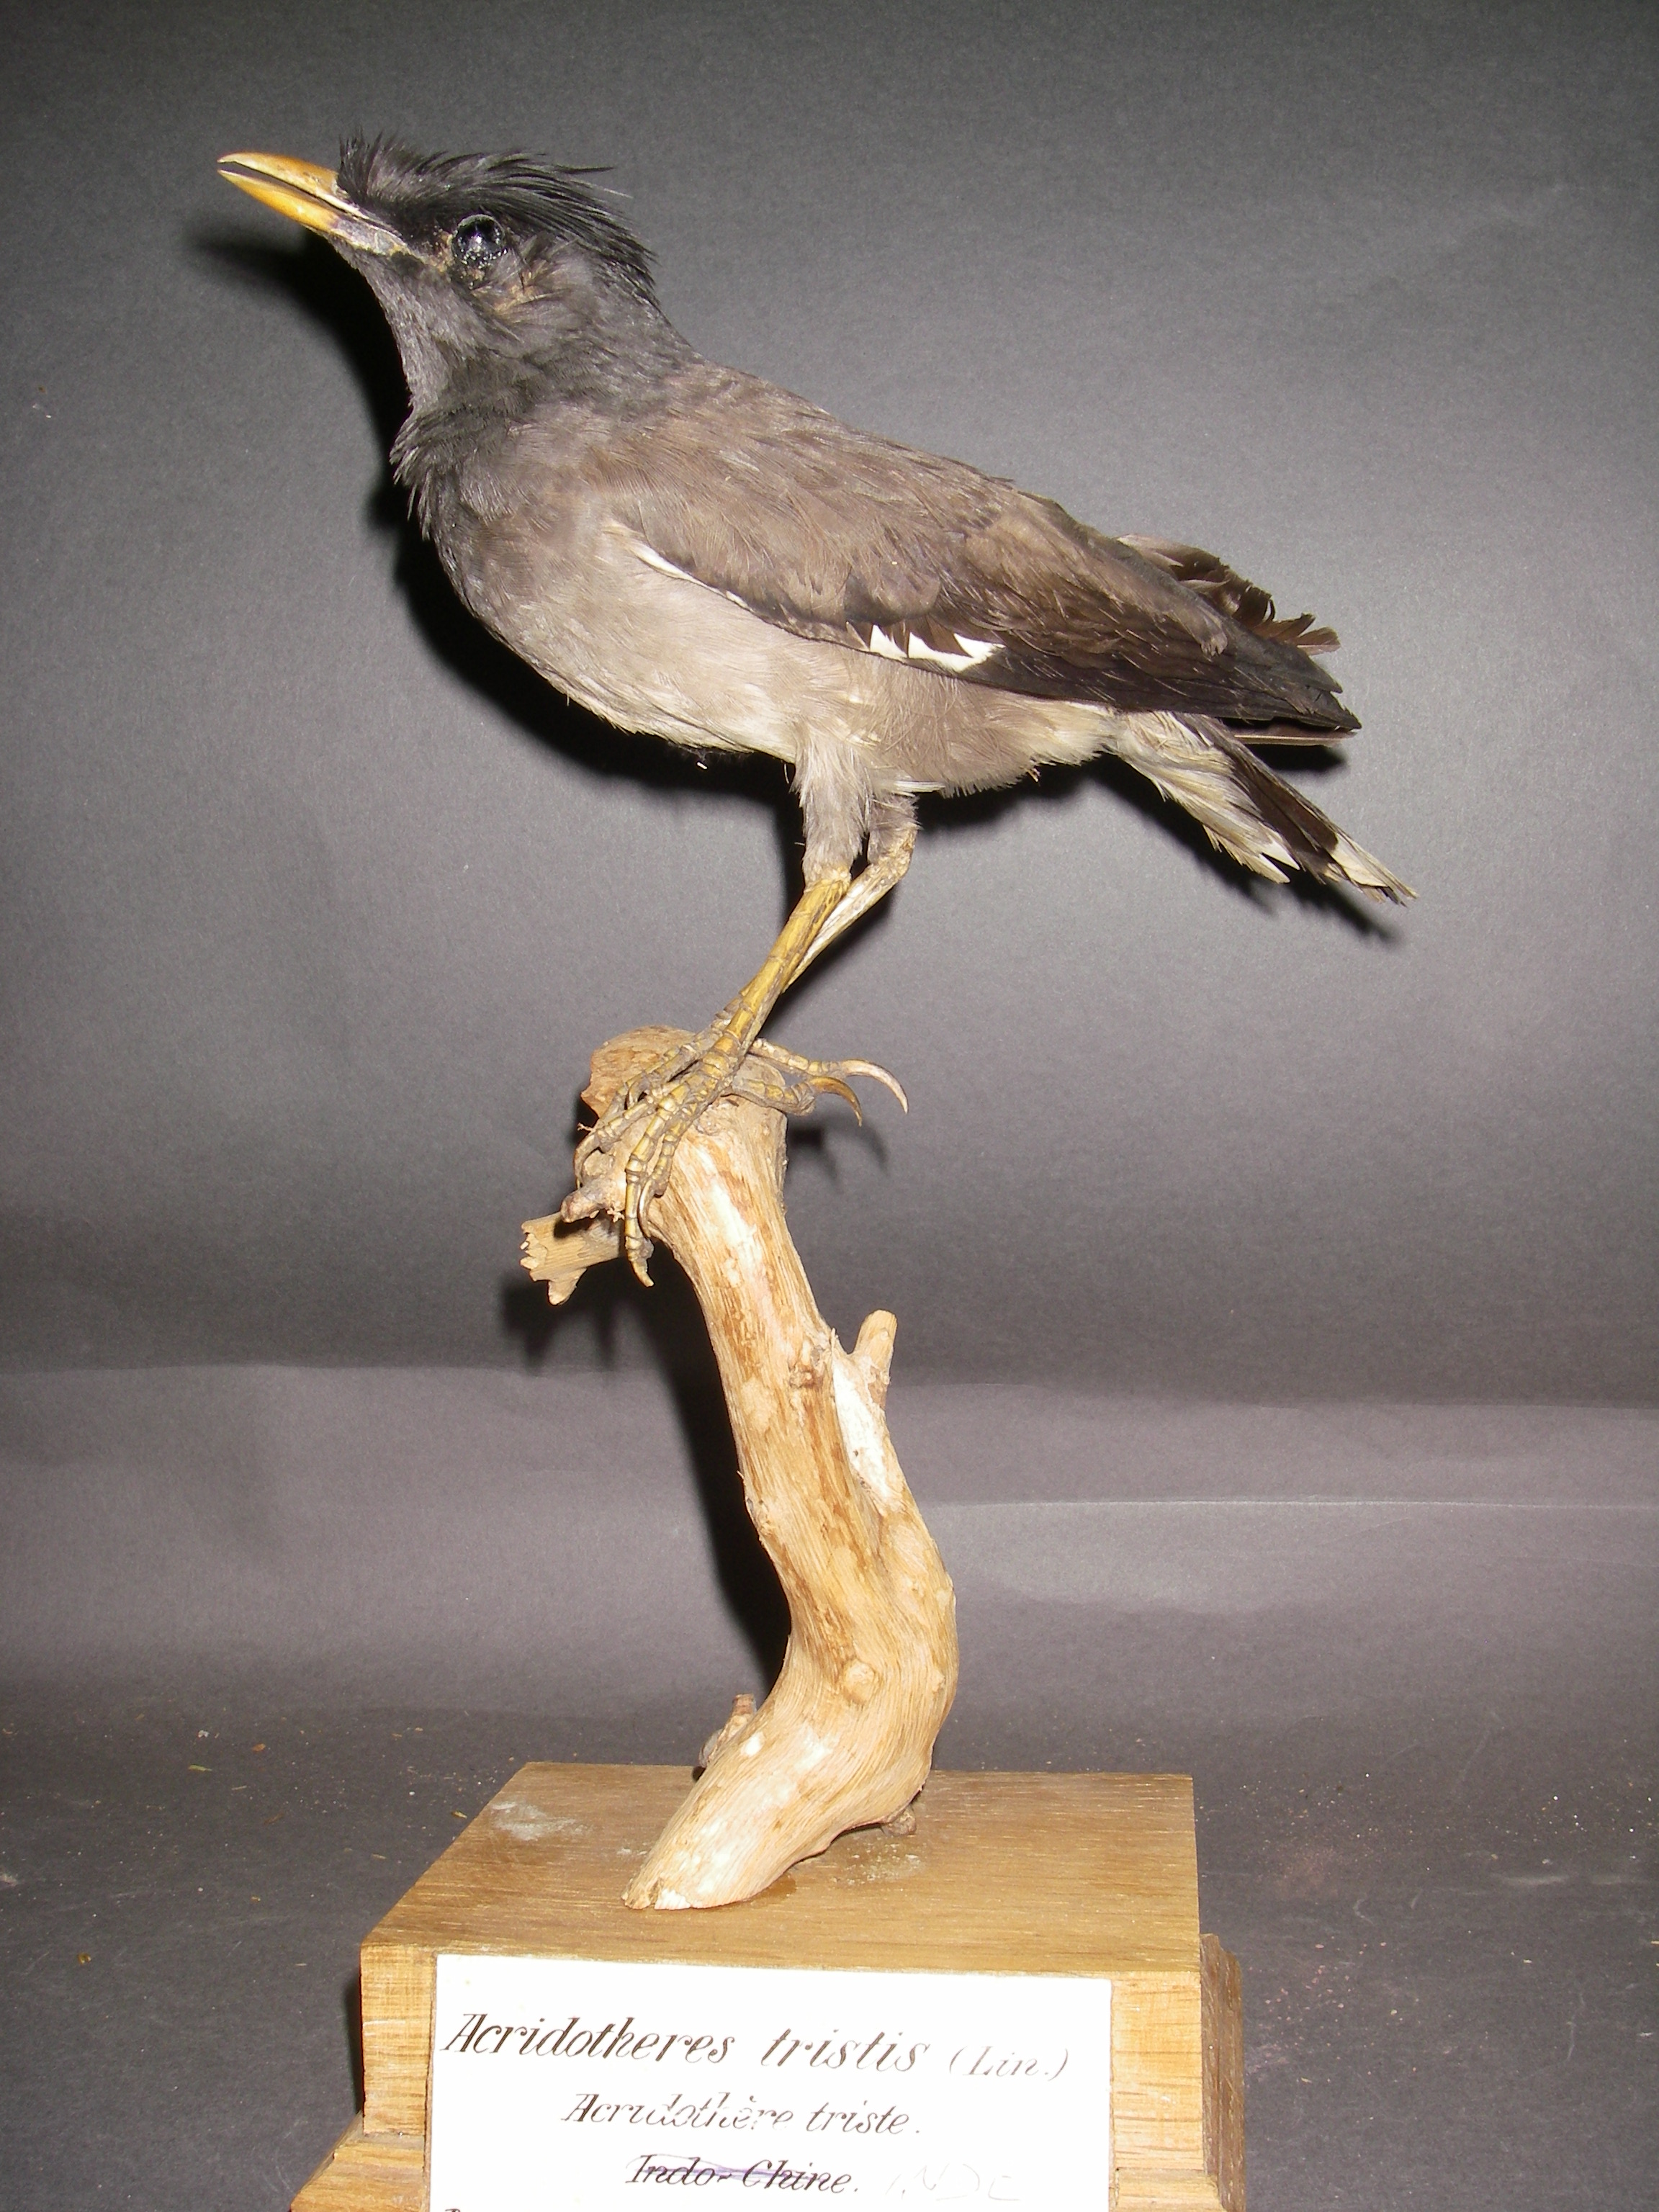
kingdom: Animalia
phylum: Chordata
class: Aves
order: Passeriformes
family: Sturnidae
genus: Acridotheres
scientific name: Acridotheres fuscus
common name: Jungle myna
